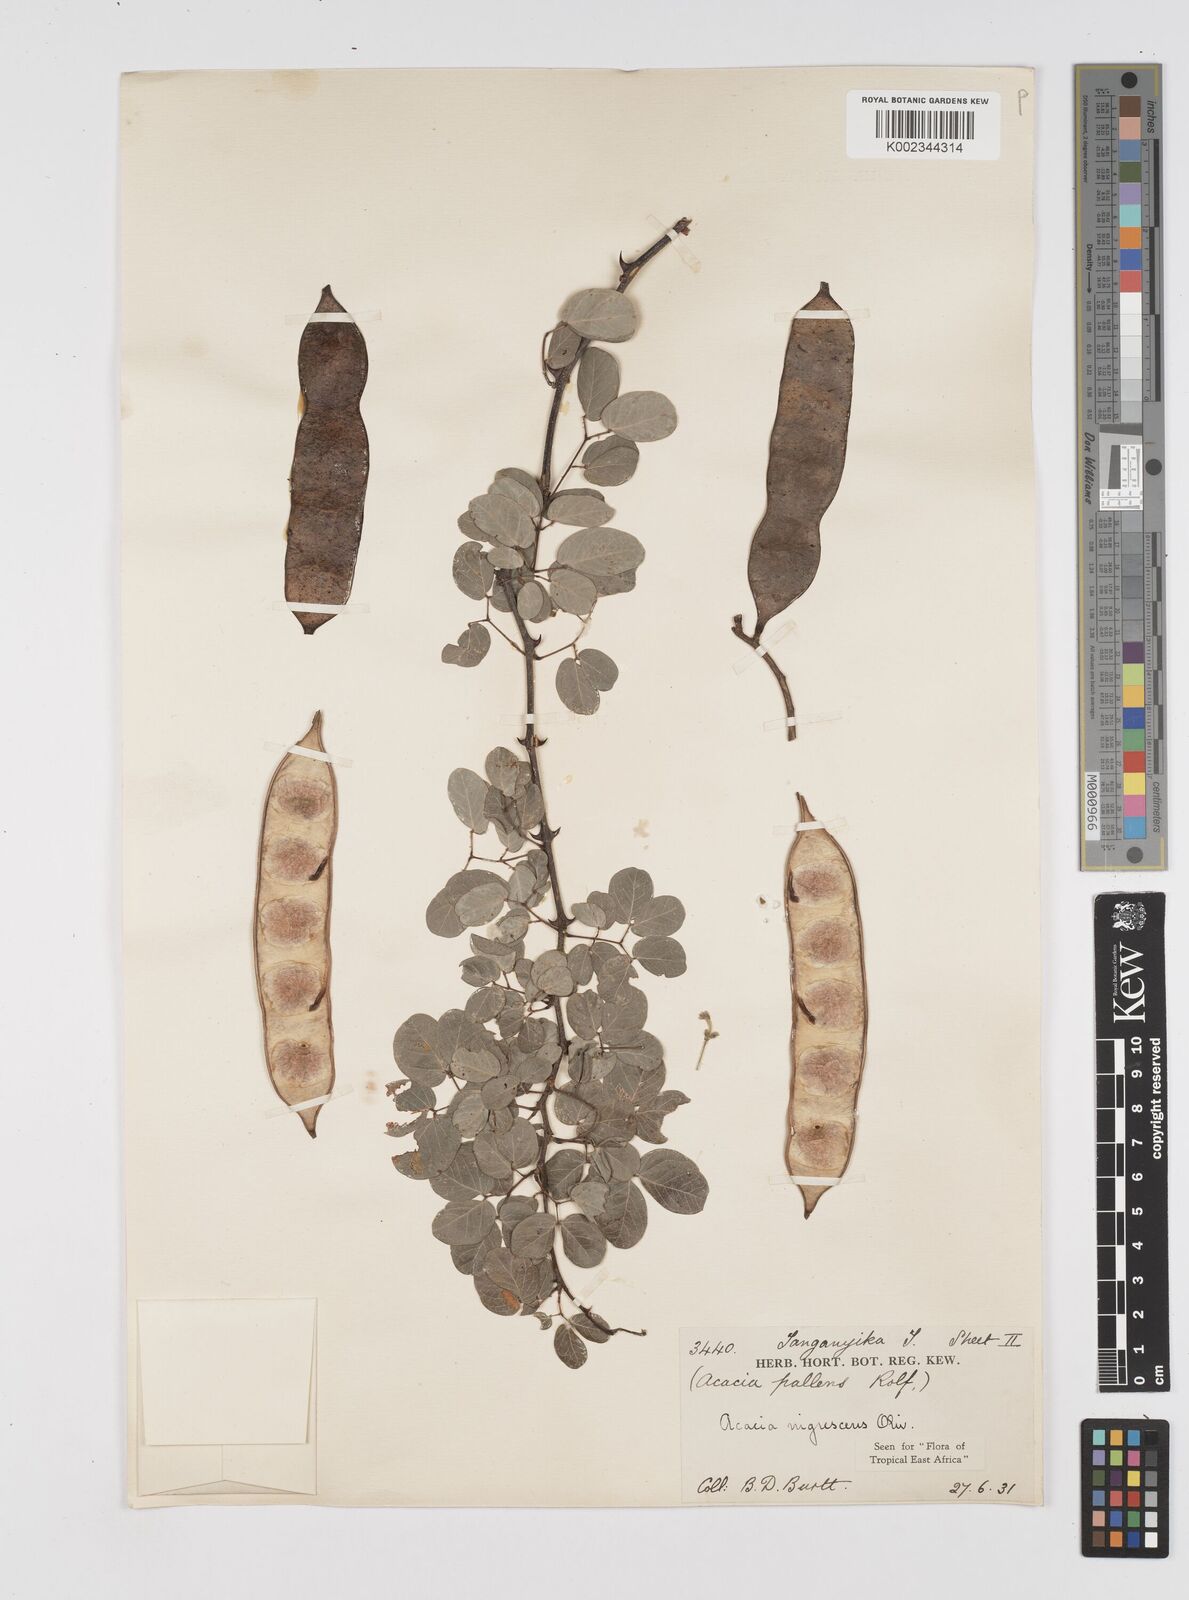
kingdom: Plantae
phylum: Tracheophyta
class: Magnoliopsida
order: Fabales
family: Fabaceae
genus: Senegalia
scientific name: Senegalia nigrescens
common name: Knobthorn
